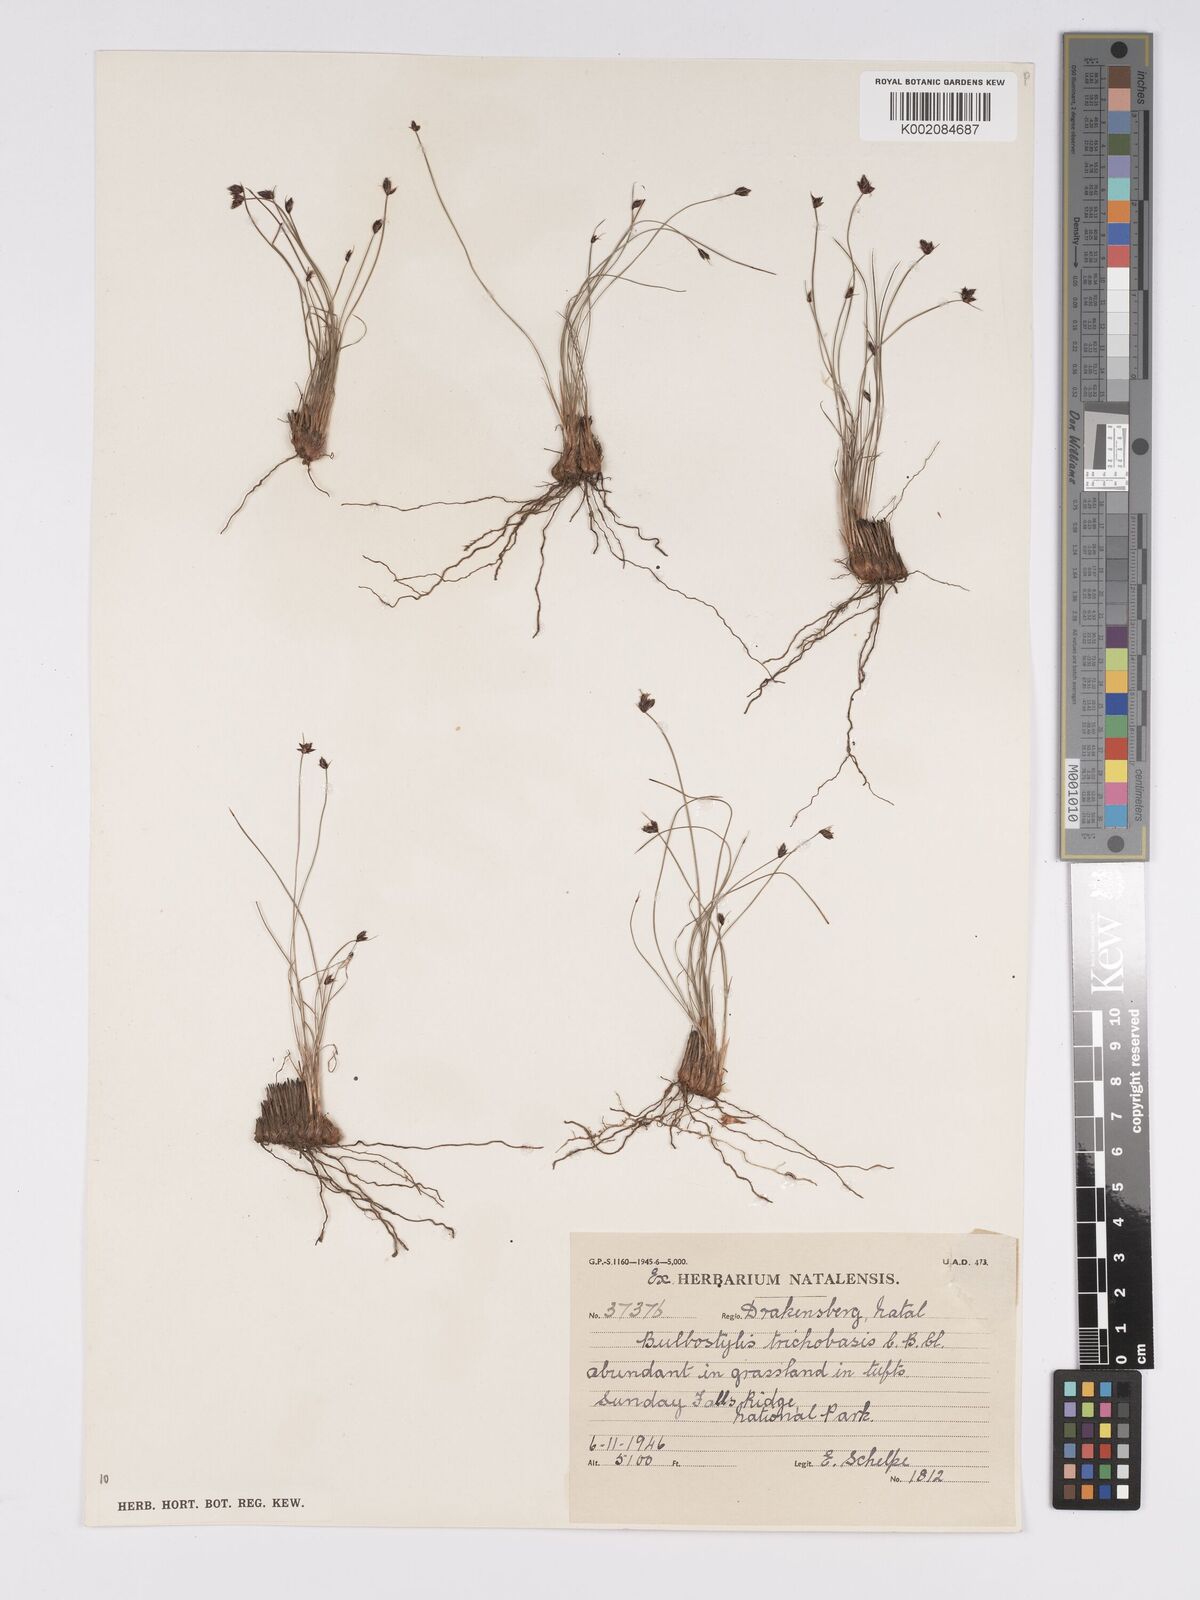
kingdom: Plantae
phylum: Tracheophyta
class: Liliopsida
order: Poales
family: Cyperaceae
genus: Bulbostylis
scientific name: Bulbostylis trichobasis
